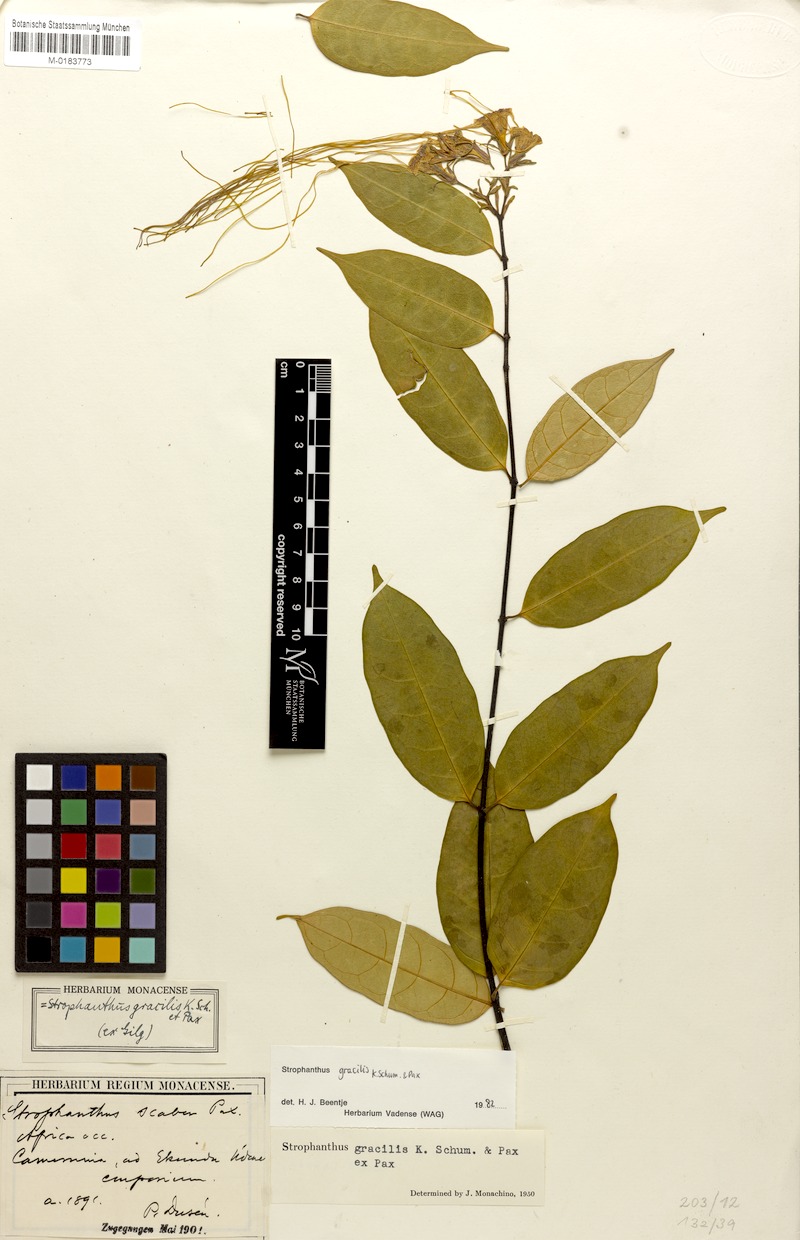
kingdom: Plantae
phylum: Tracheophyta
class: Magnoliopsida
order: Gentianales
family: Apocynaceae
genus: Strophanthus
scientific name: Strophanthus gracilis
